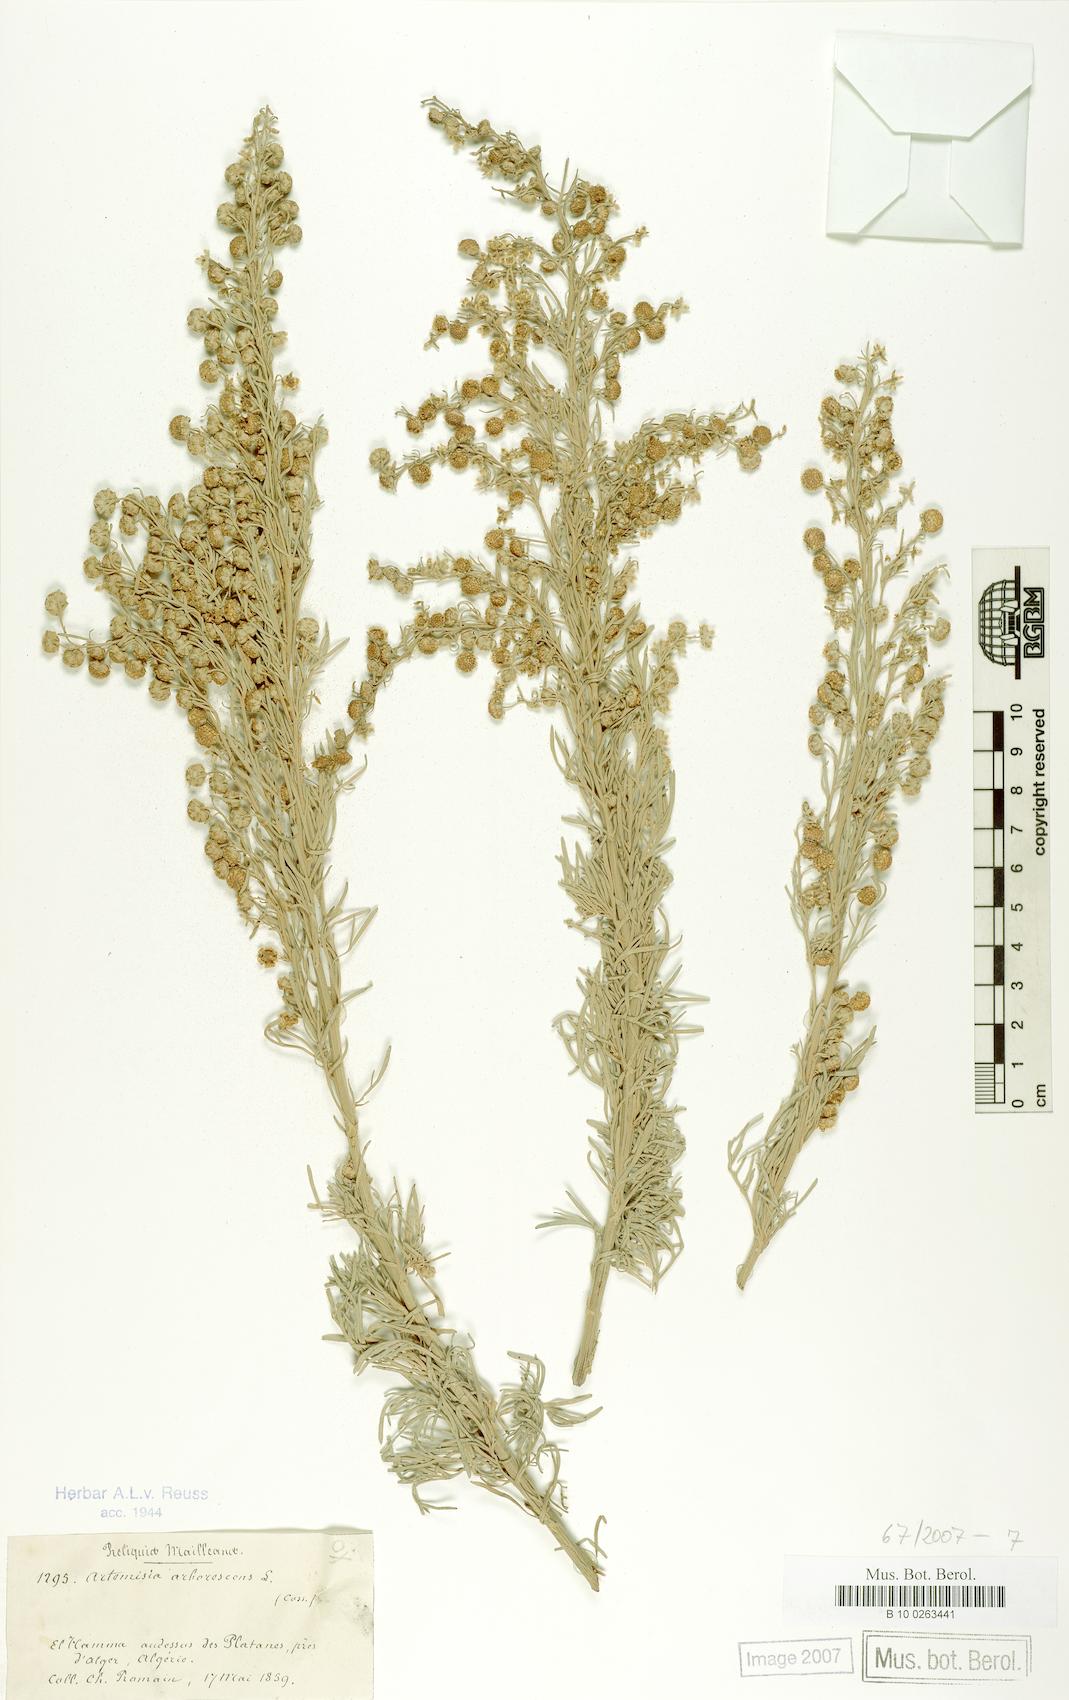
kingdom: Plantae
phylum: Tracheophyta
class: Magnoliopsida
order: Asterales
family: Asteraceae
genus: Artemisia
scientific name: Artemisia arborescens
